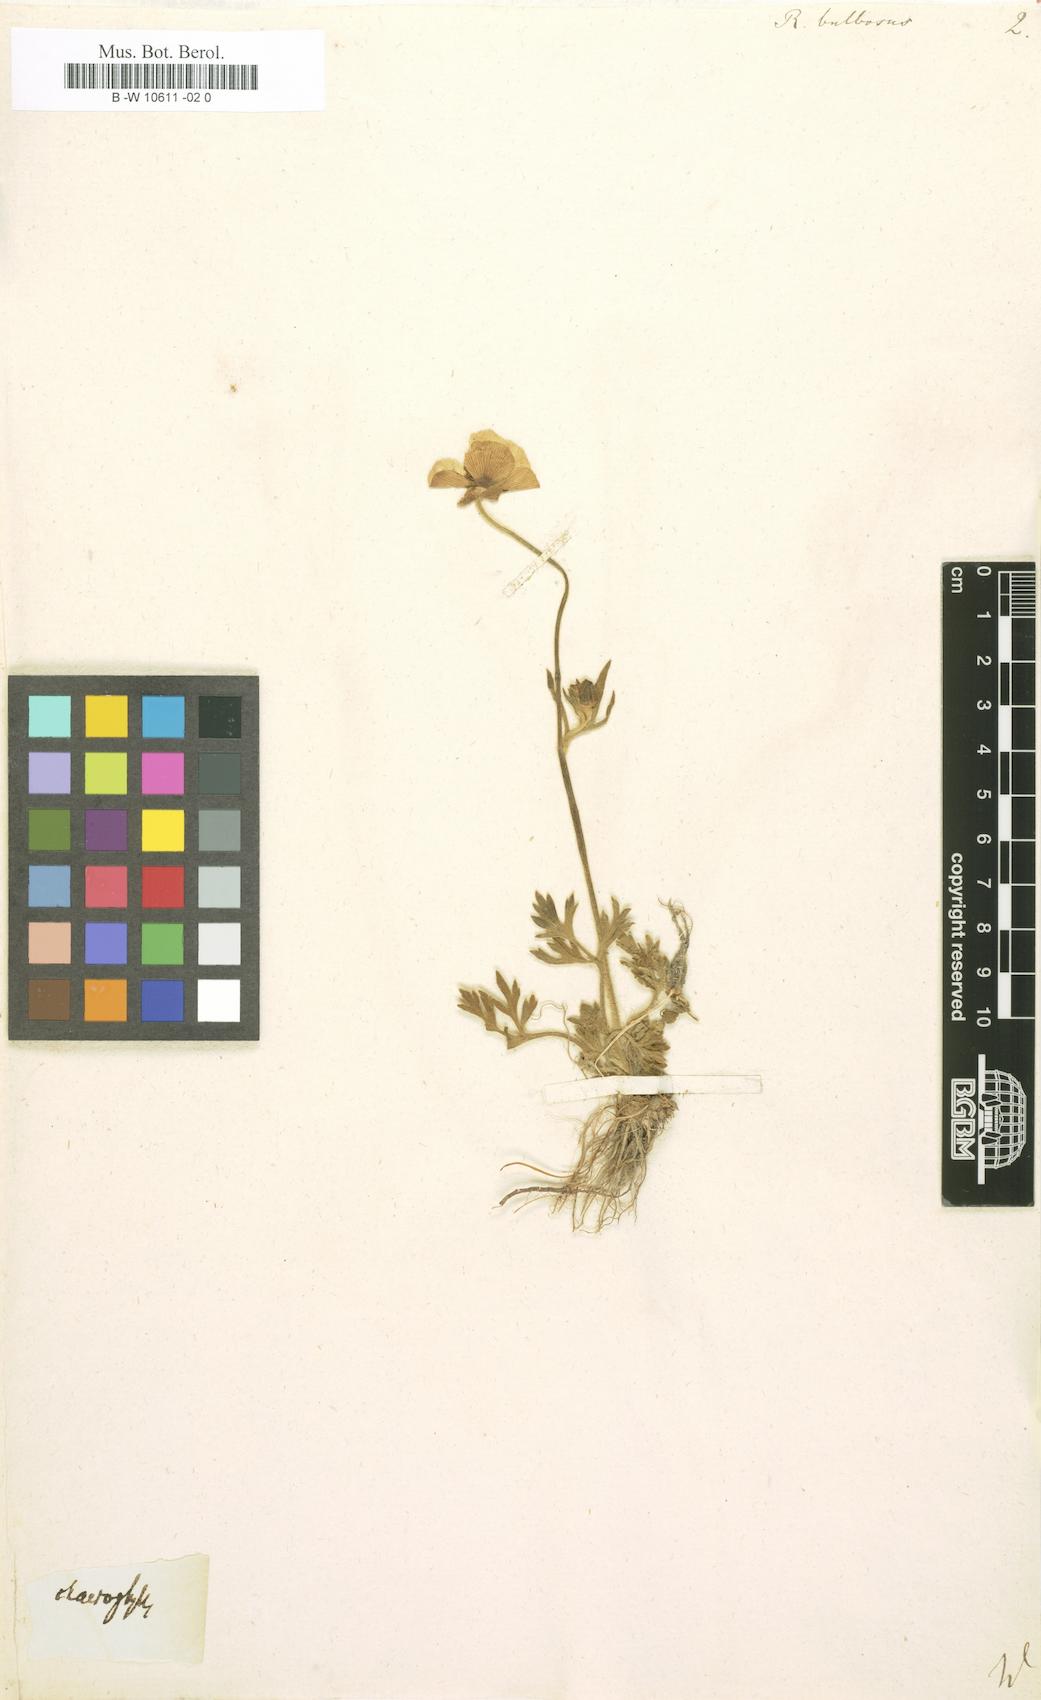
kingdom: Plantae
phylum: Tracheophyta
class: Magnoliopsida
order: Ranunculales
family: Ranunculaceae
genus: Ranunculus
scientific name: Ranunculus bulbosus
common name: Bulbous buttercup
